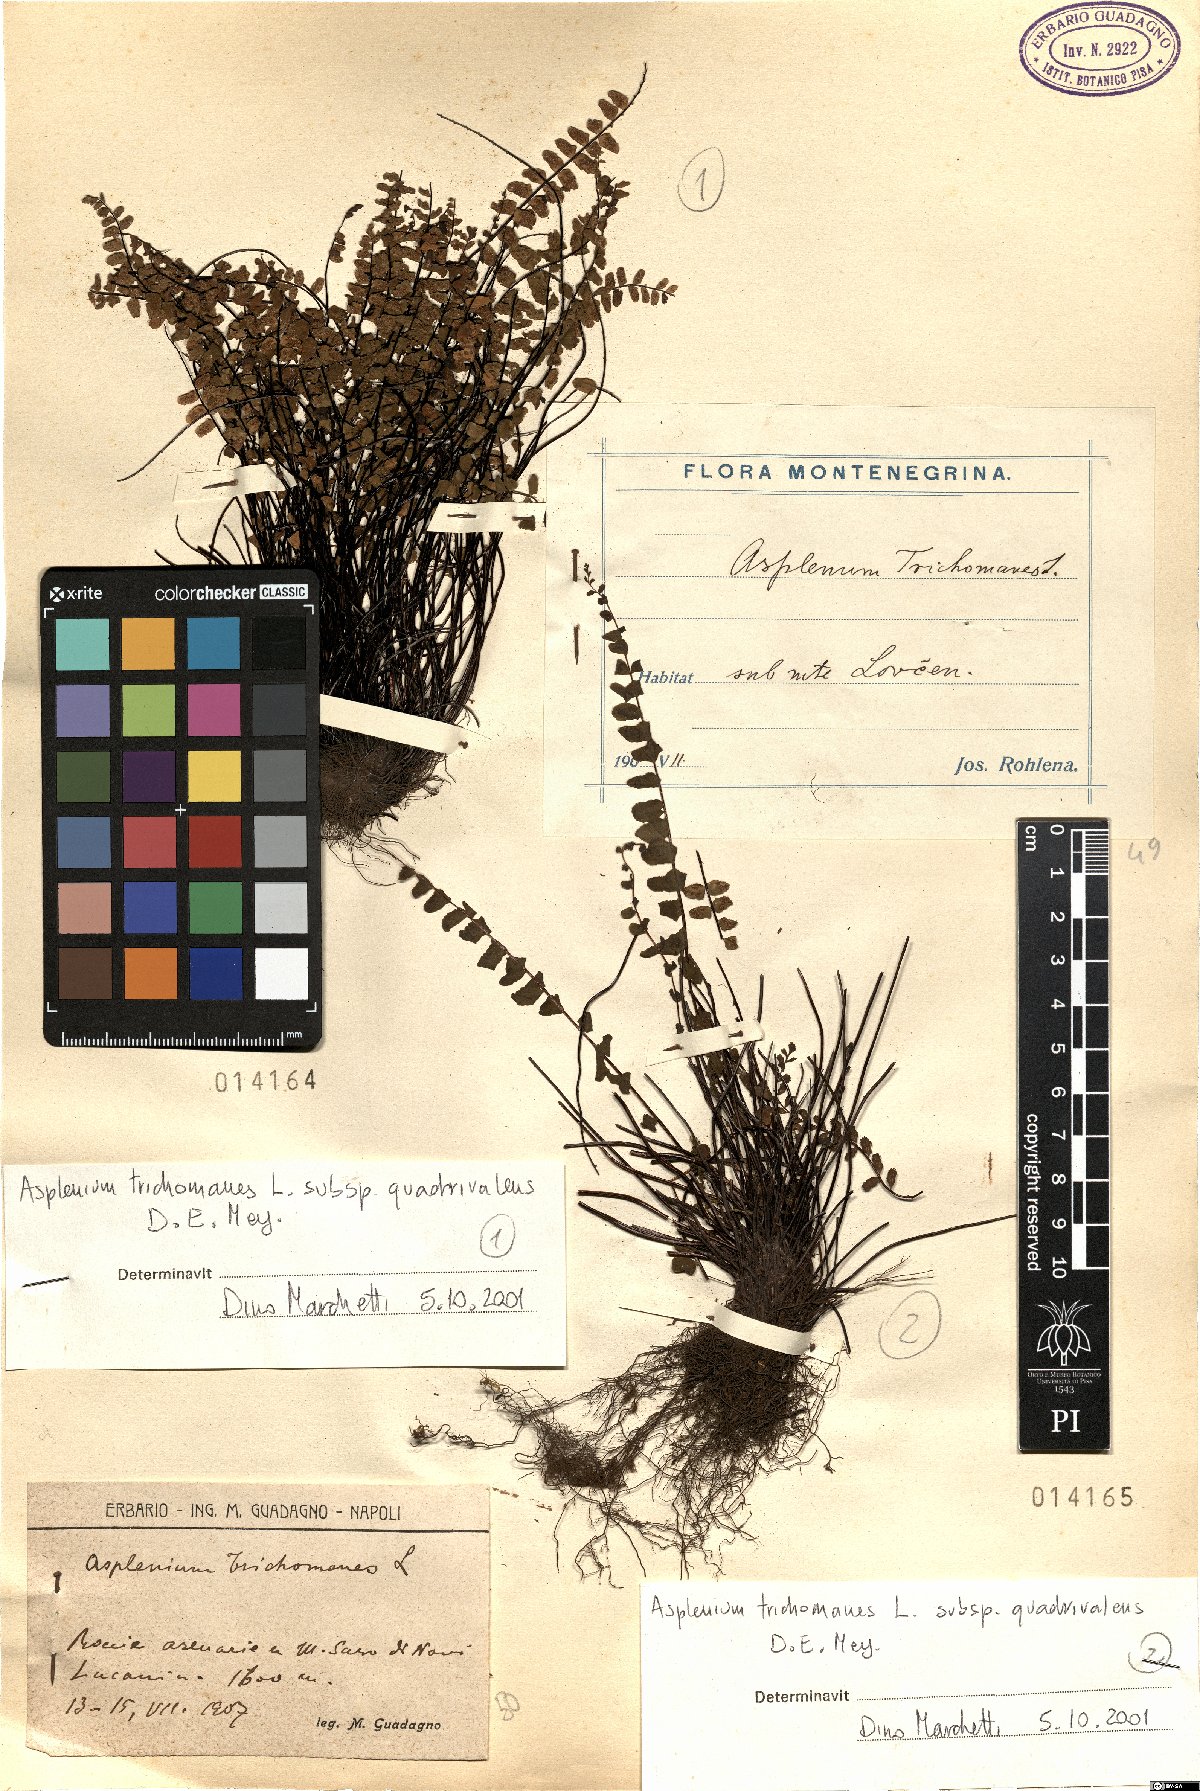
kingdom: Plantae
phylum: Tracheophyta
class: Polypodiopsida
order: Polypodiales
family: Aspleniaceae
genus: Asplenium
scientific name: Asplenium quadrivalens
